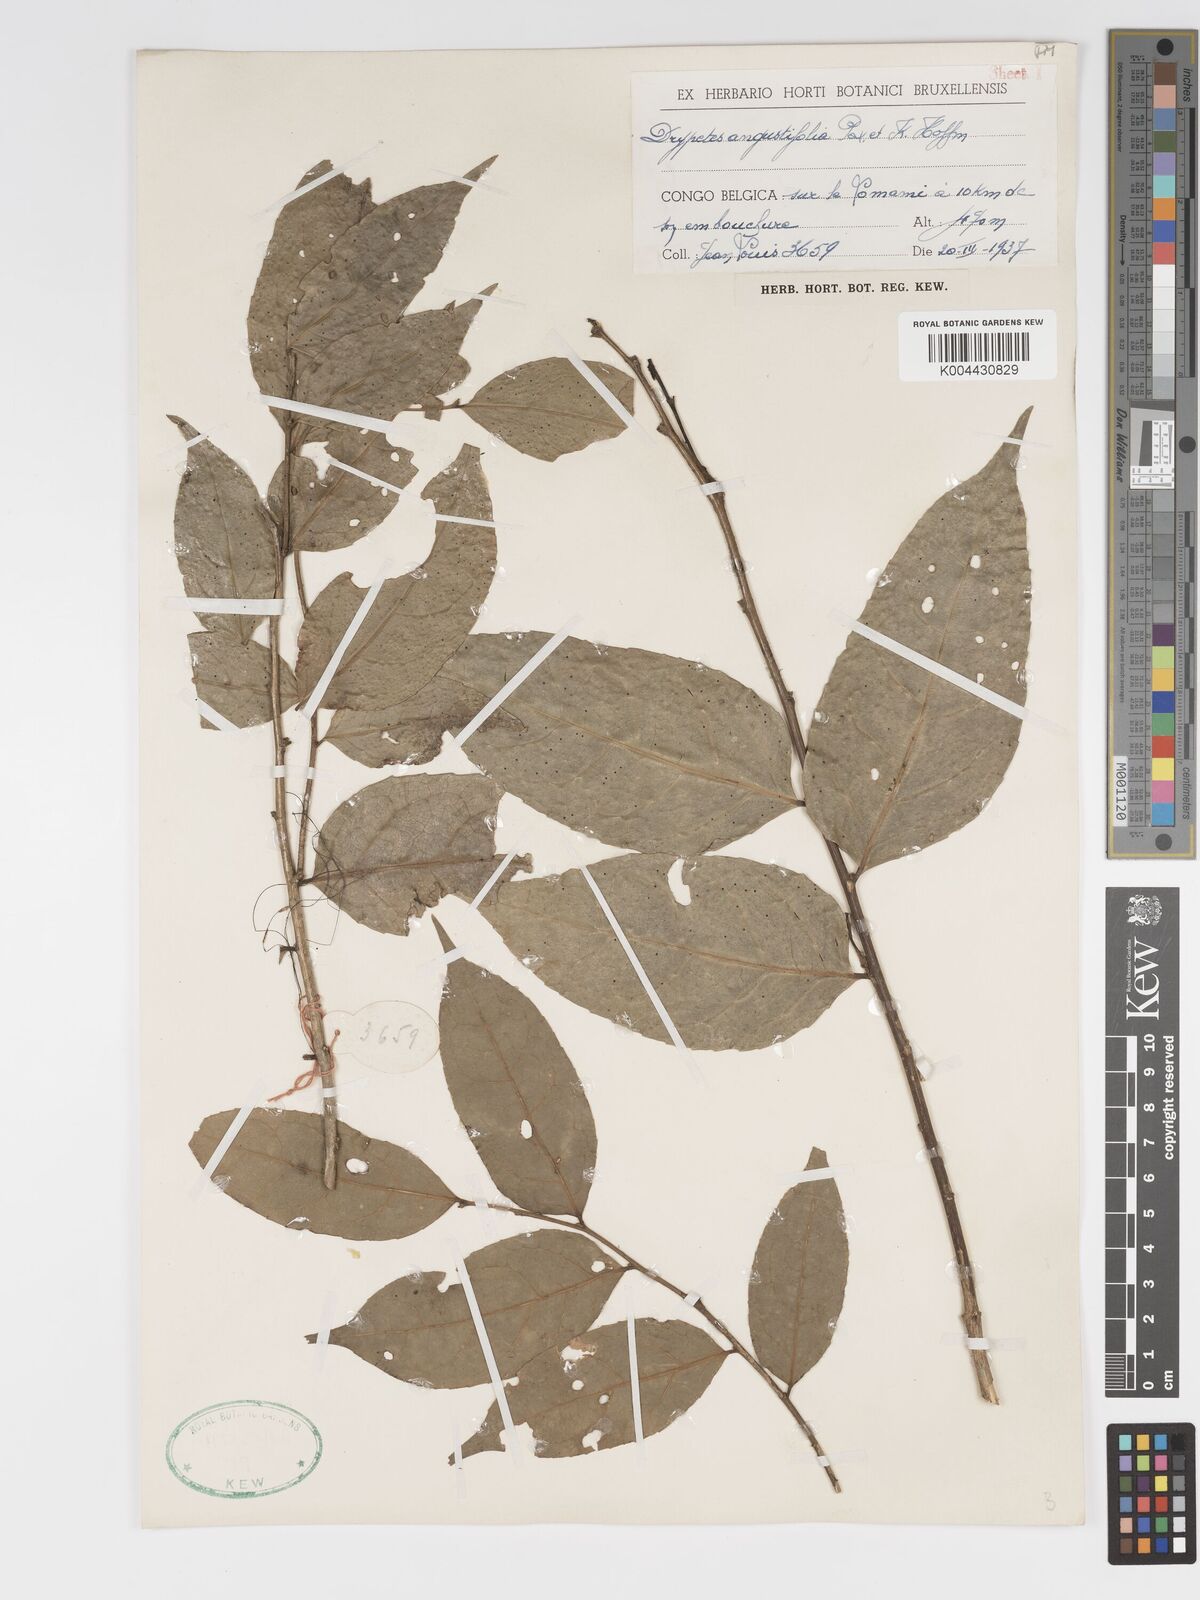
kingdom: Plantae
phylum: Tracheophyta
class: Magnoliopsida
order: Malpighiales
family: Putranjivaceae
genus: Drypetes
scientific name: Drypetes angustifolia
